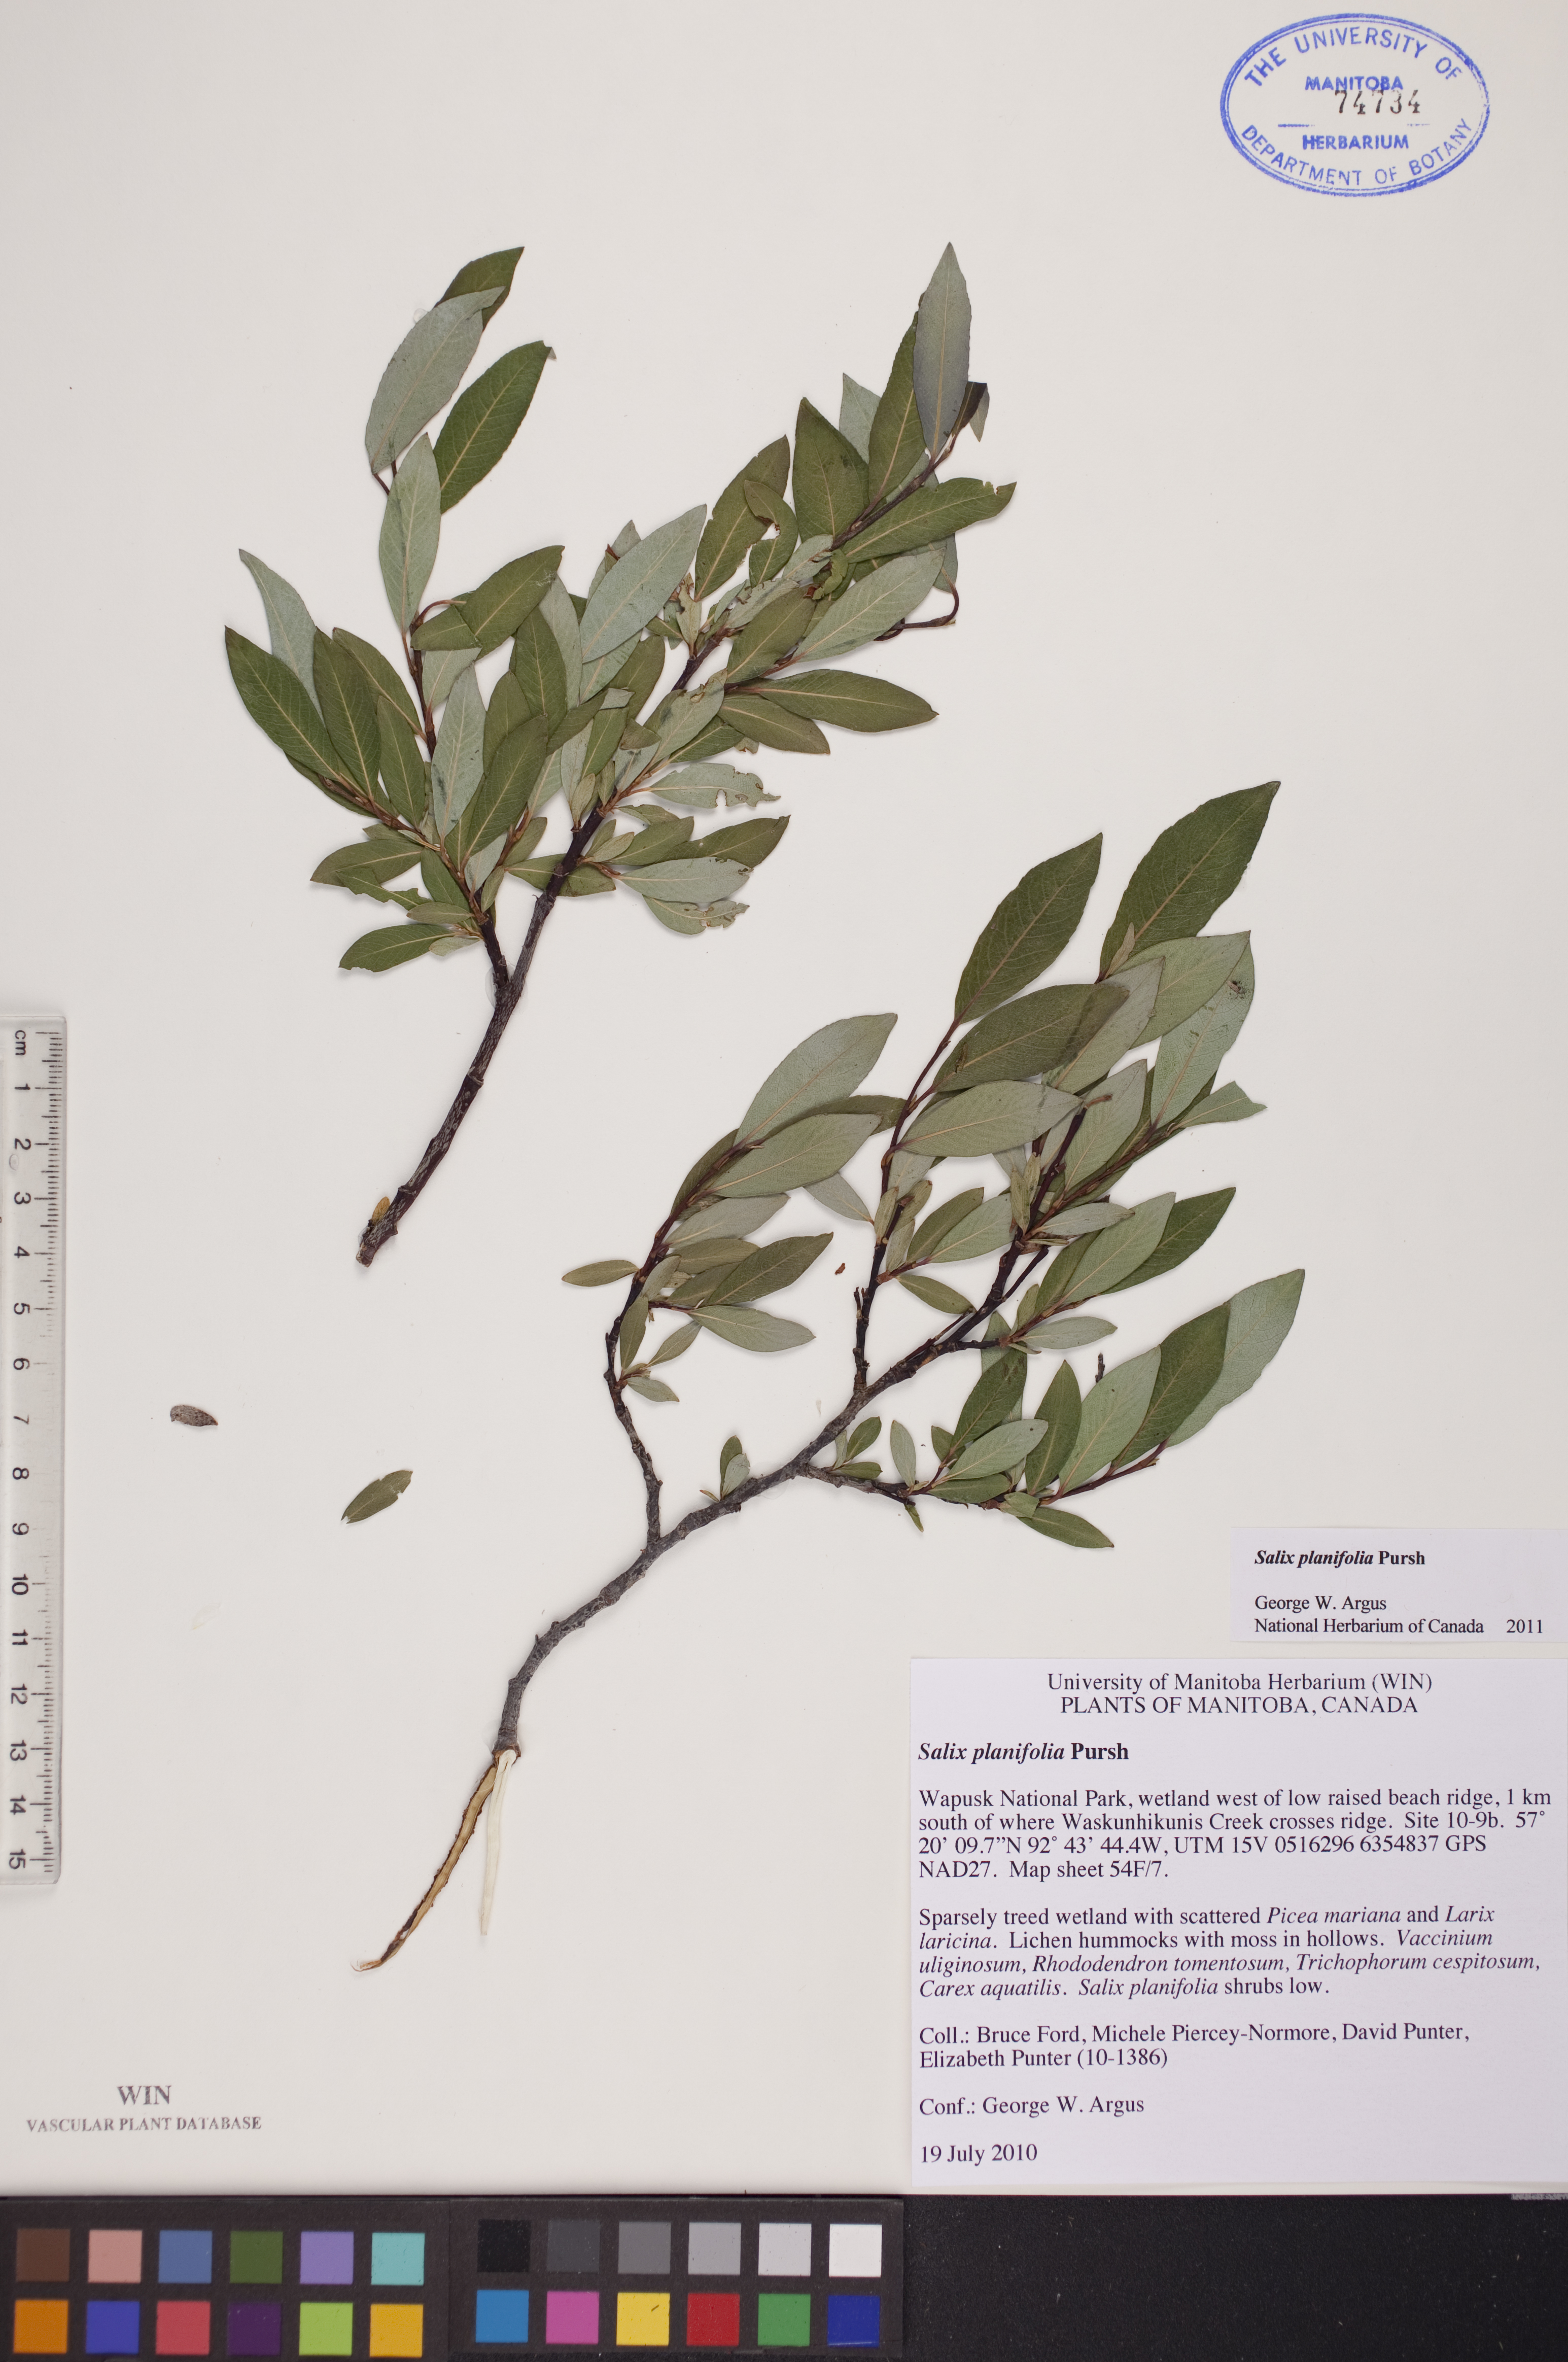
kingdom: Plantae
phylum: Tracheophyta
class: Magnoliopsida
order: Malpighiales
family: Salicaceae
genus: Salix
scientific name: Salix planifolia
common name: Mountain willow
